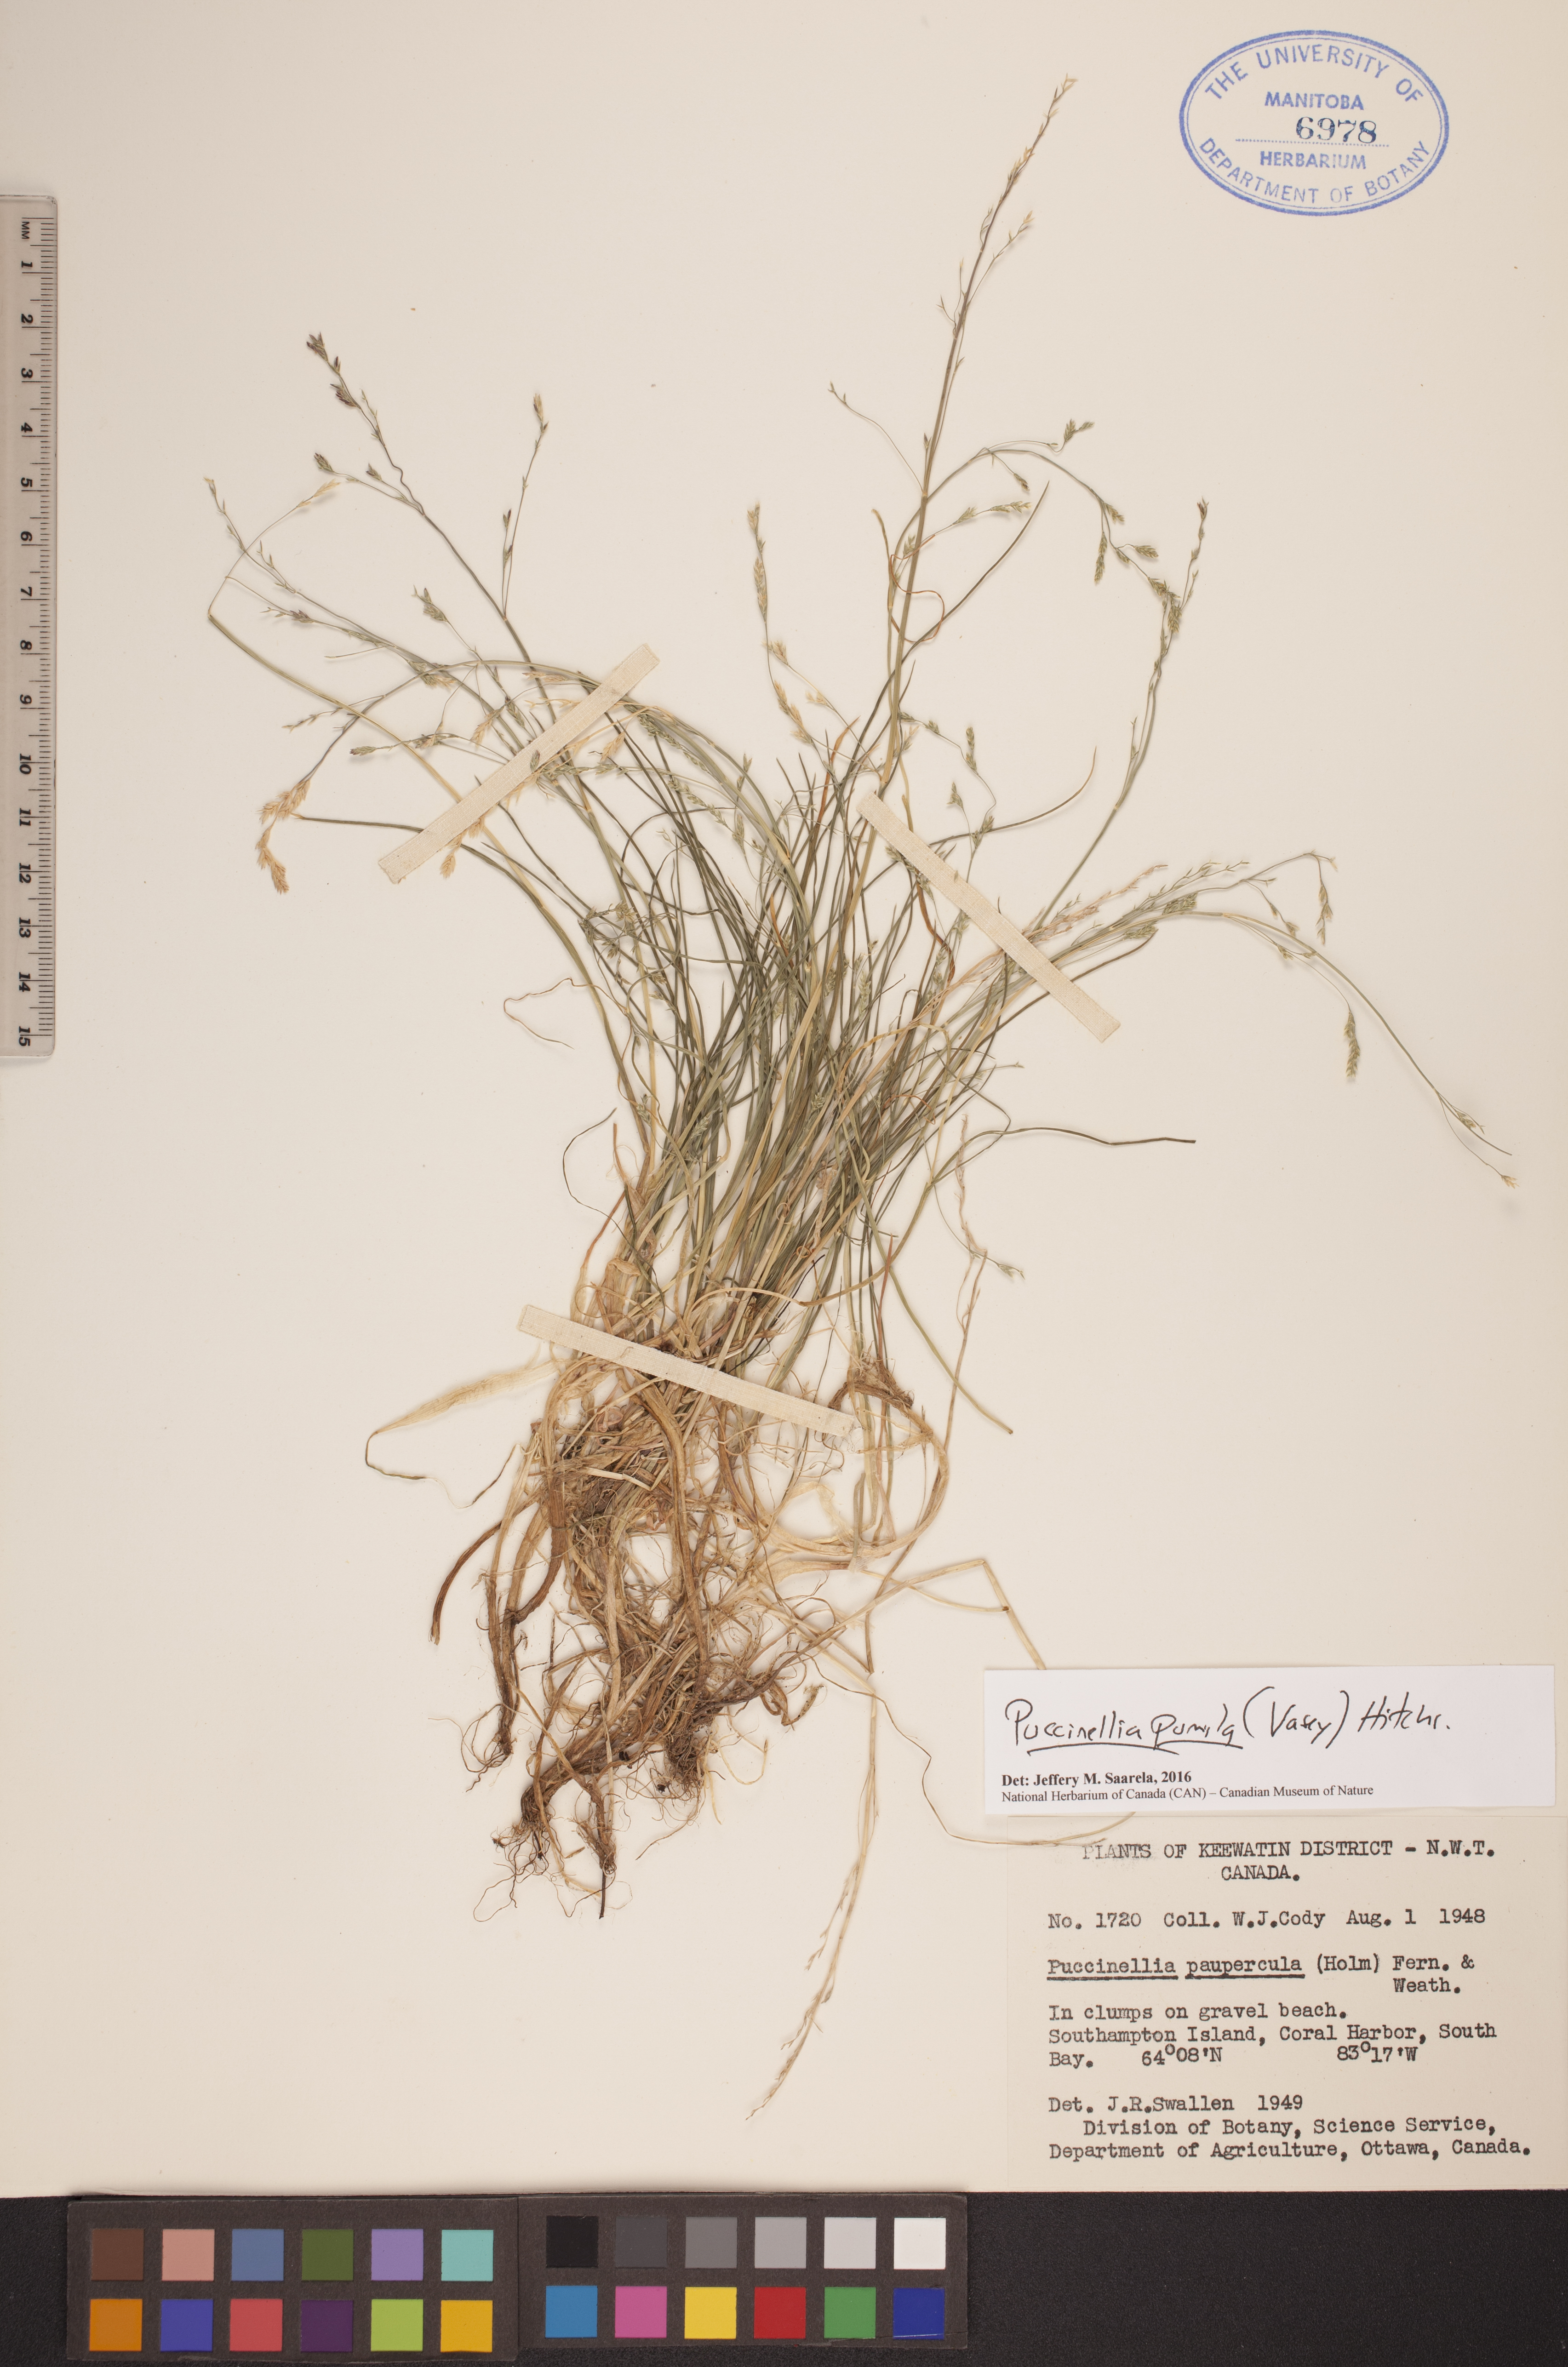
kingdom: Plantae
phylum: Tracheophyta
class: Liliopsida
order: Poales
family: Poaceae
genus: Puccinellia
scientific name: Puccinellia pumila
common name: Dwarf alkaligrass
